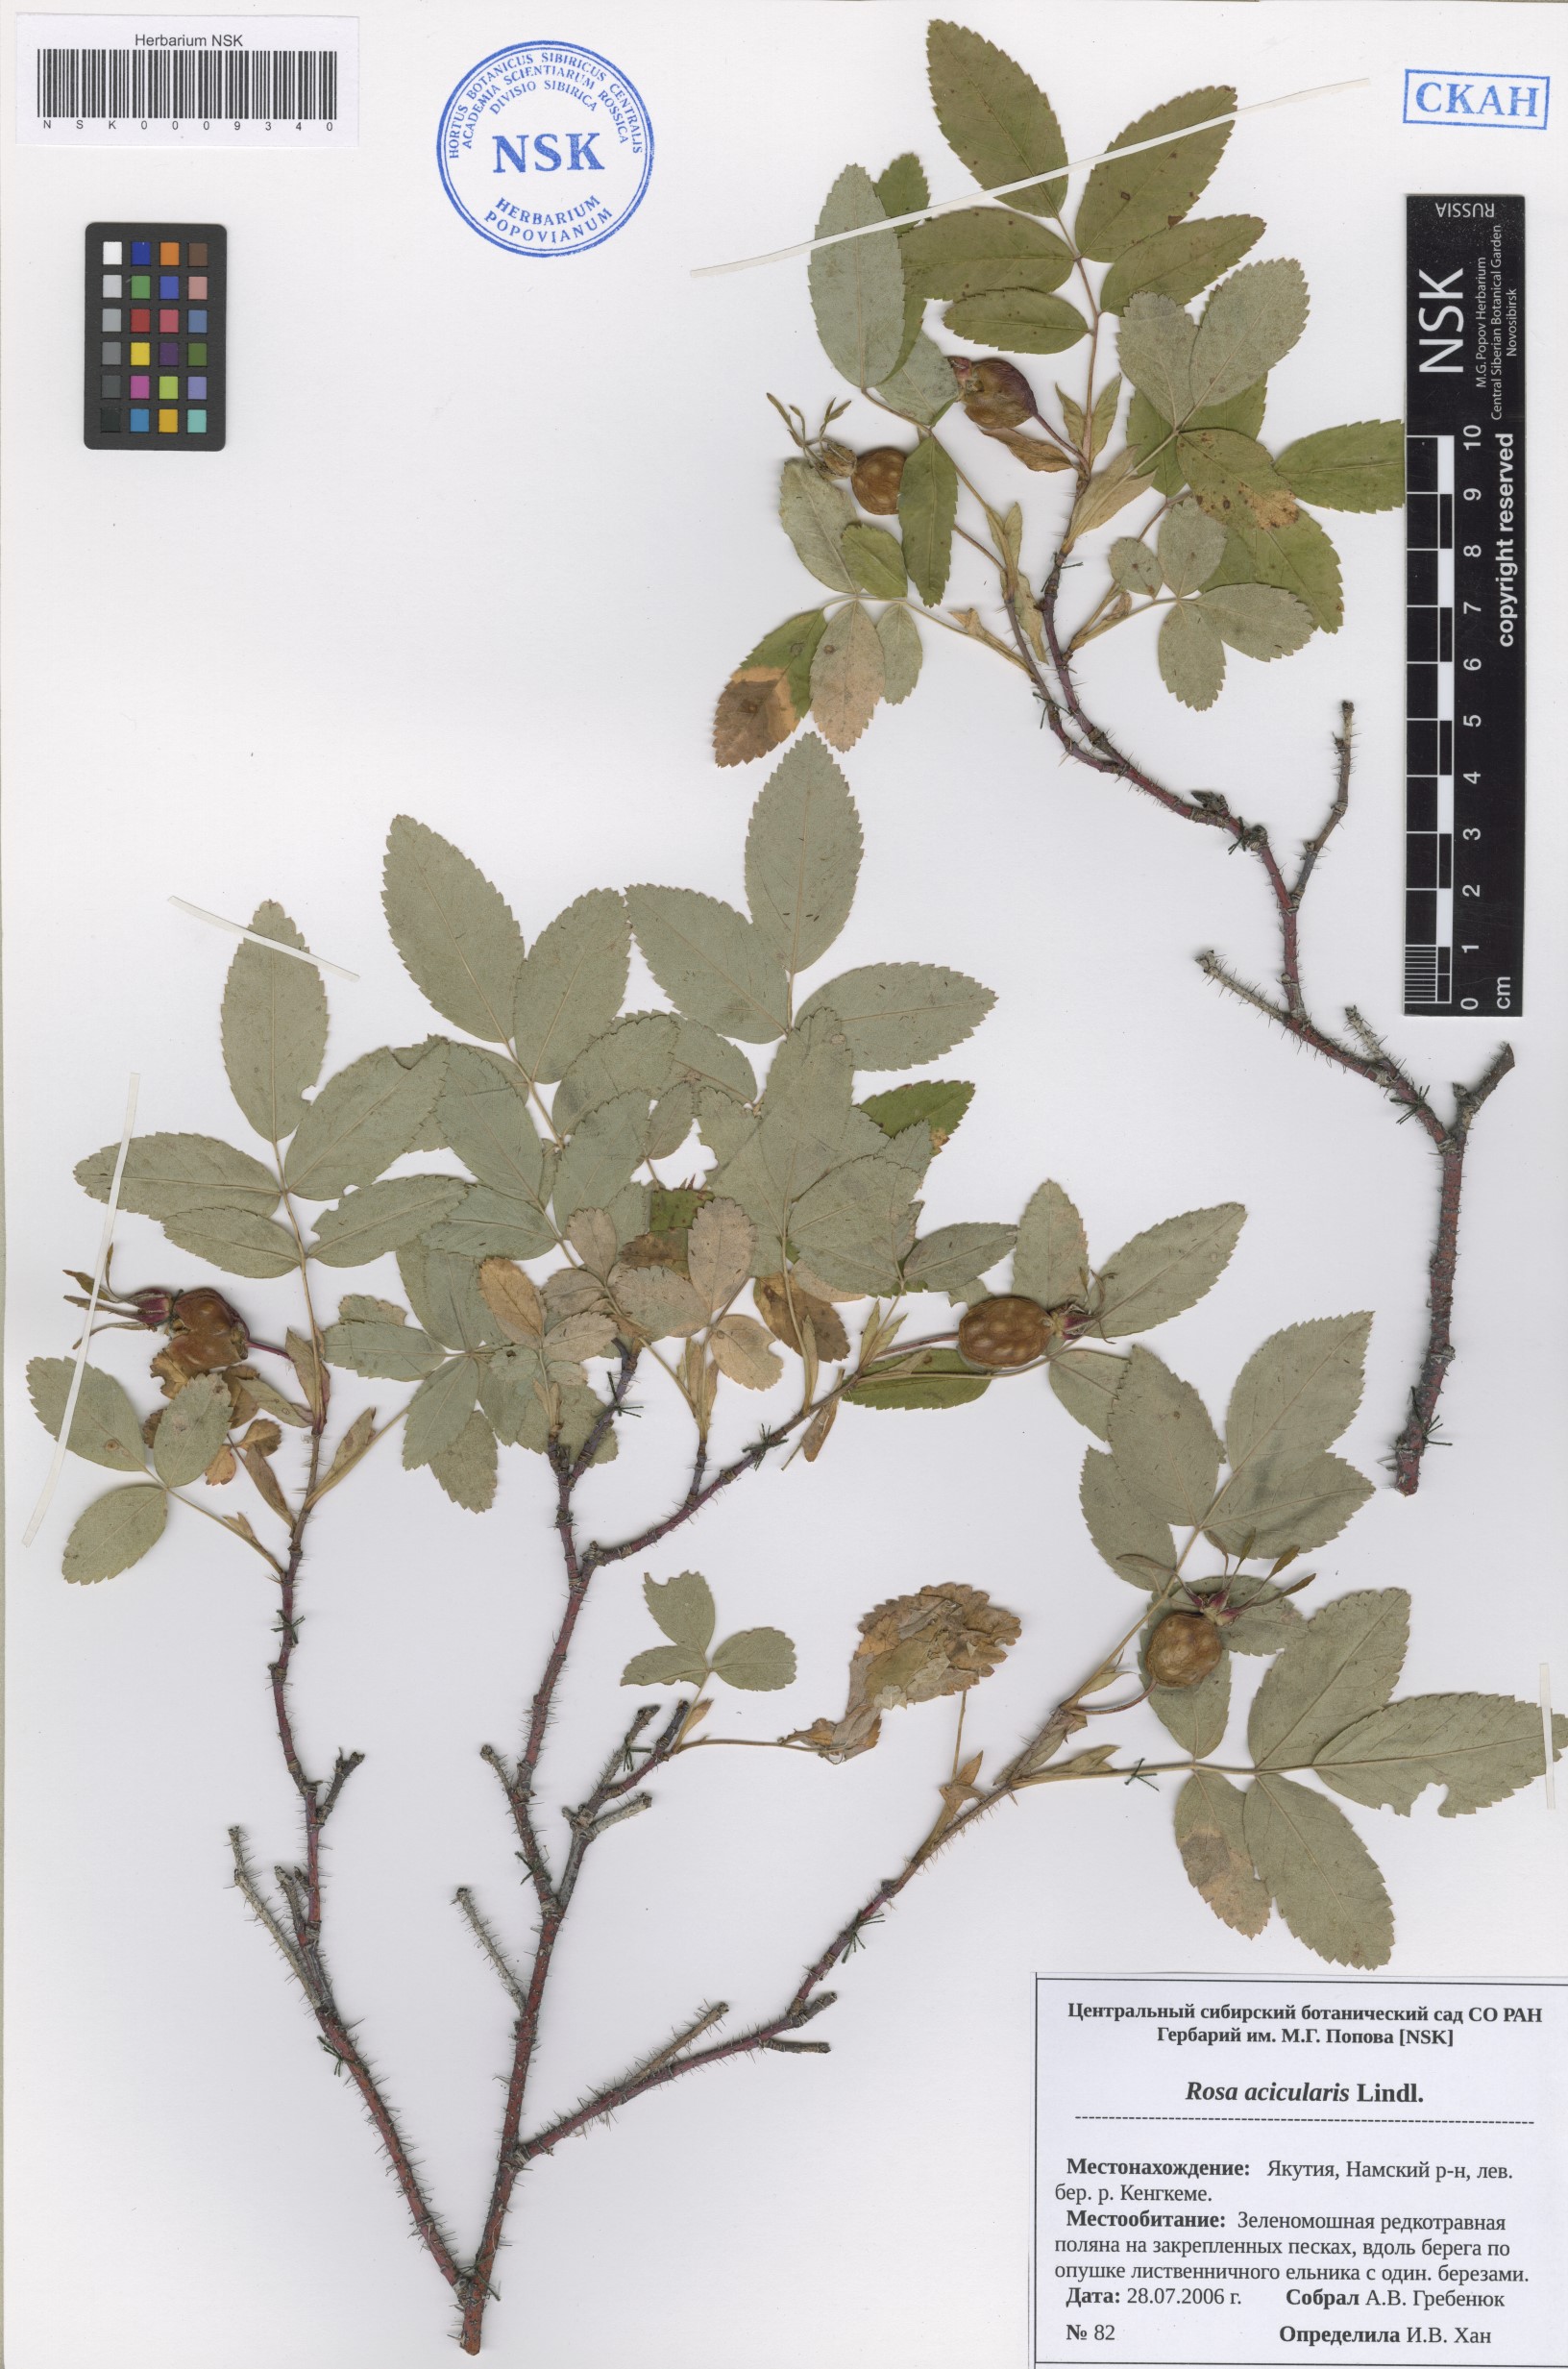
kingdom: Plantae
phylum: Tracheophyta
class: Magnoliopsida
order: Rosales
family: Rosaceae
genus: Rosa
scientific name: Rosa acicularis
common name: Prickly rose
